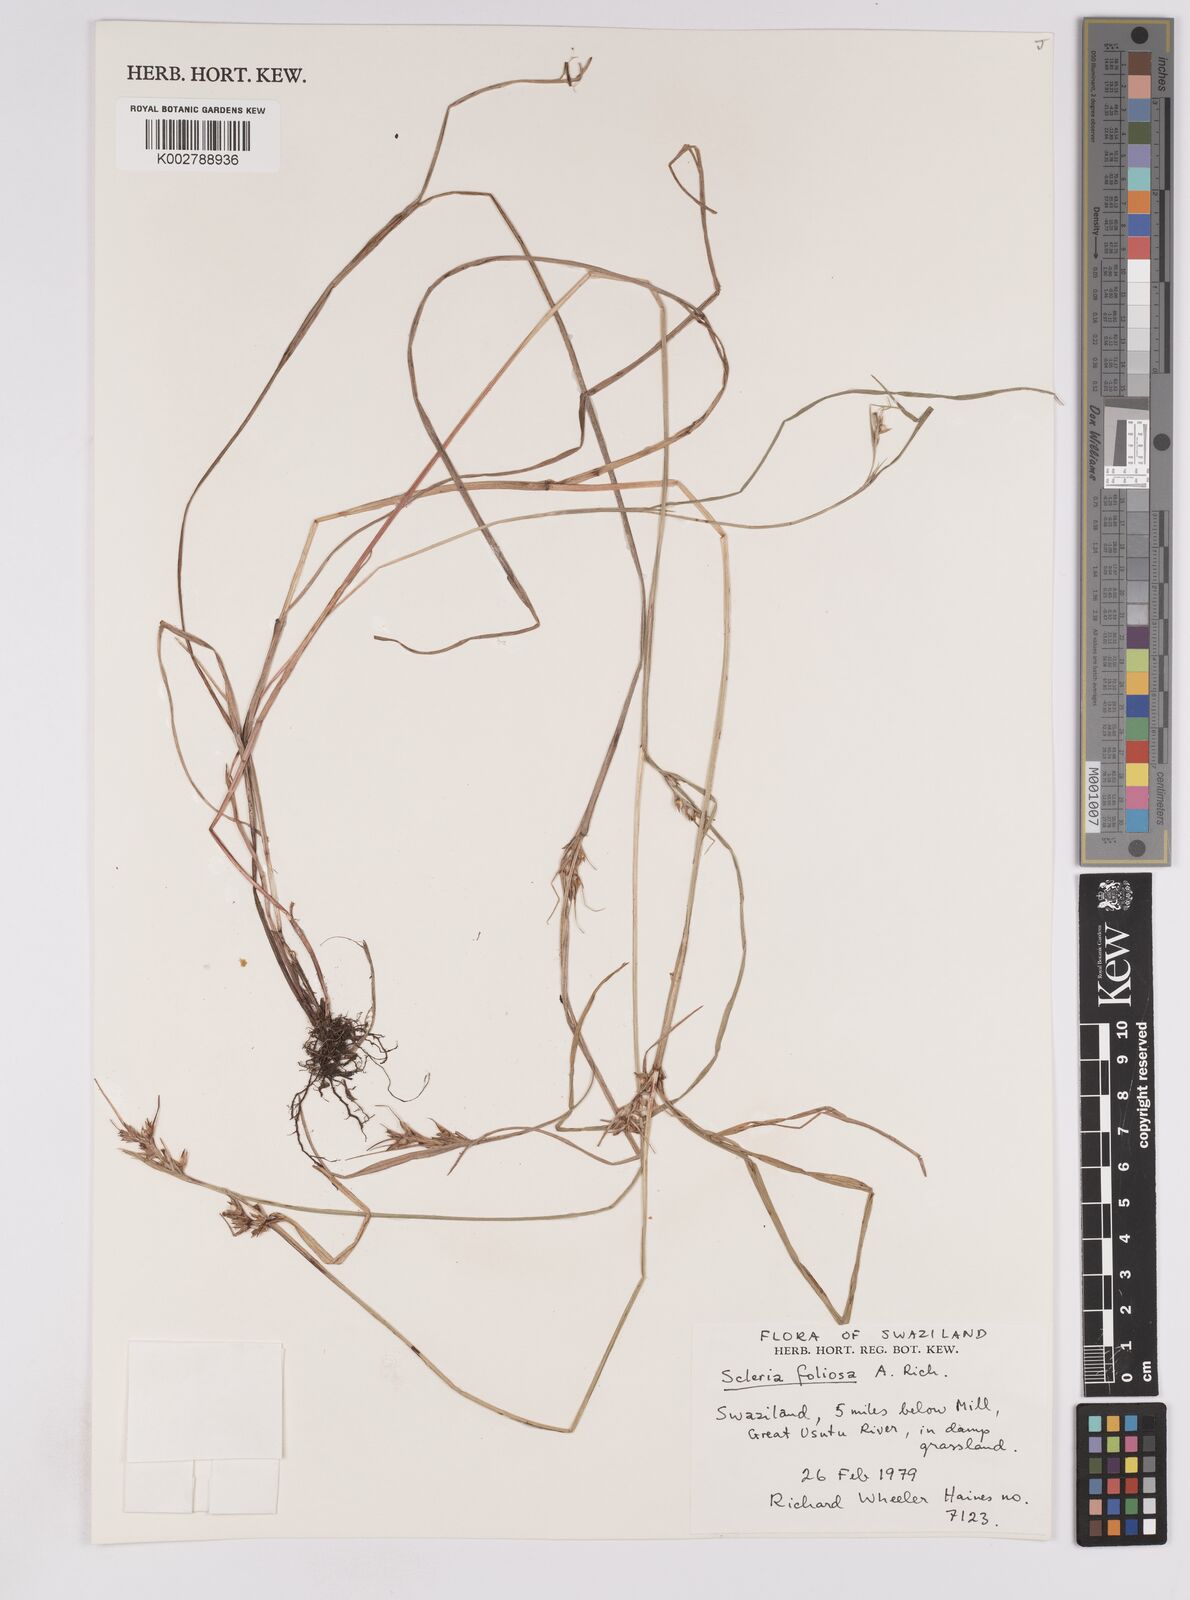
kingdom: Plantae
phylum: Tracheophyta
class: Liliopsida
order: Poales
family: Cyperaceae
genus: Scleria
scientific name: Scleria foliosa
